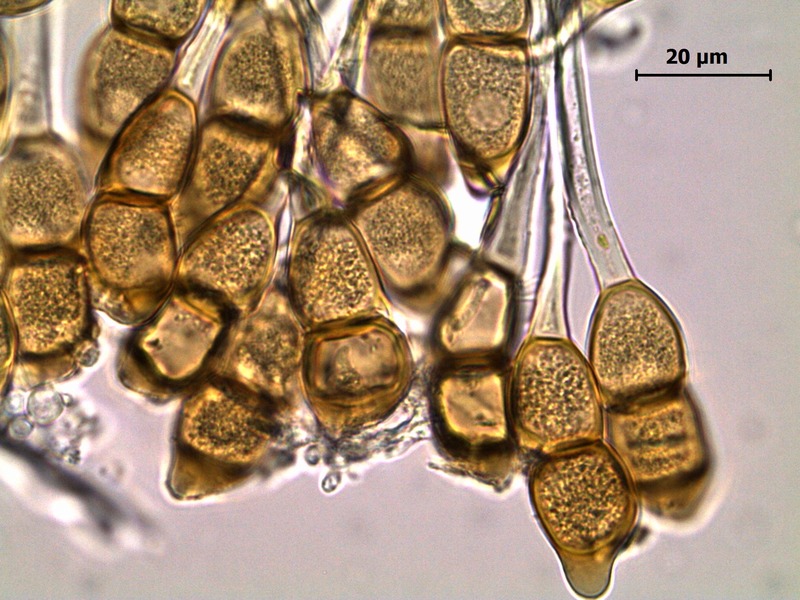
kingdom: Fungi
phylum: Basidiomycota
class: Pucciniomycetes
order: Pucciniales
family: Pucciniaceae
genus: Puccinia
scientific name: Puccinia arenariae
